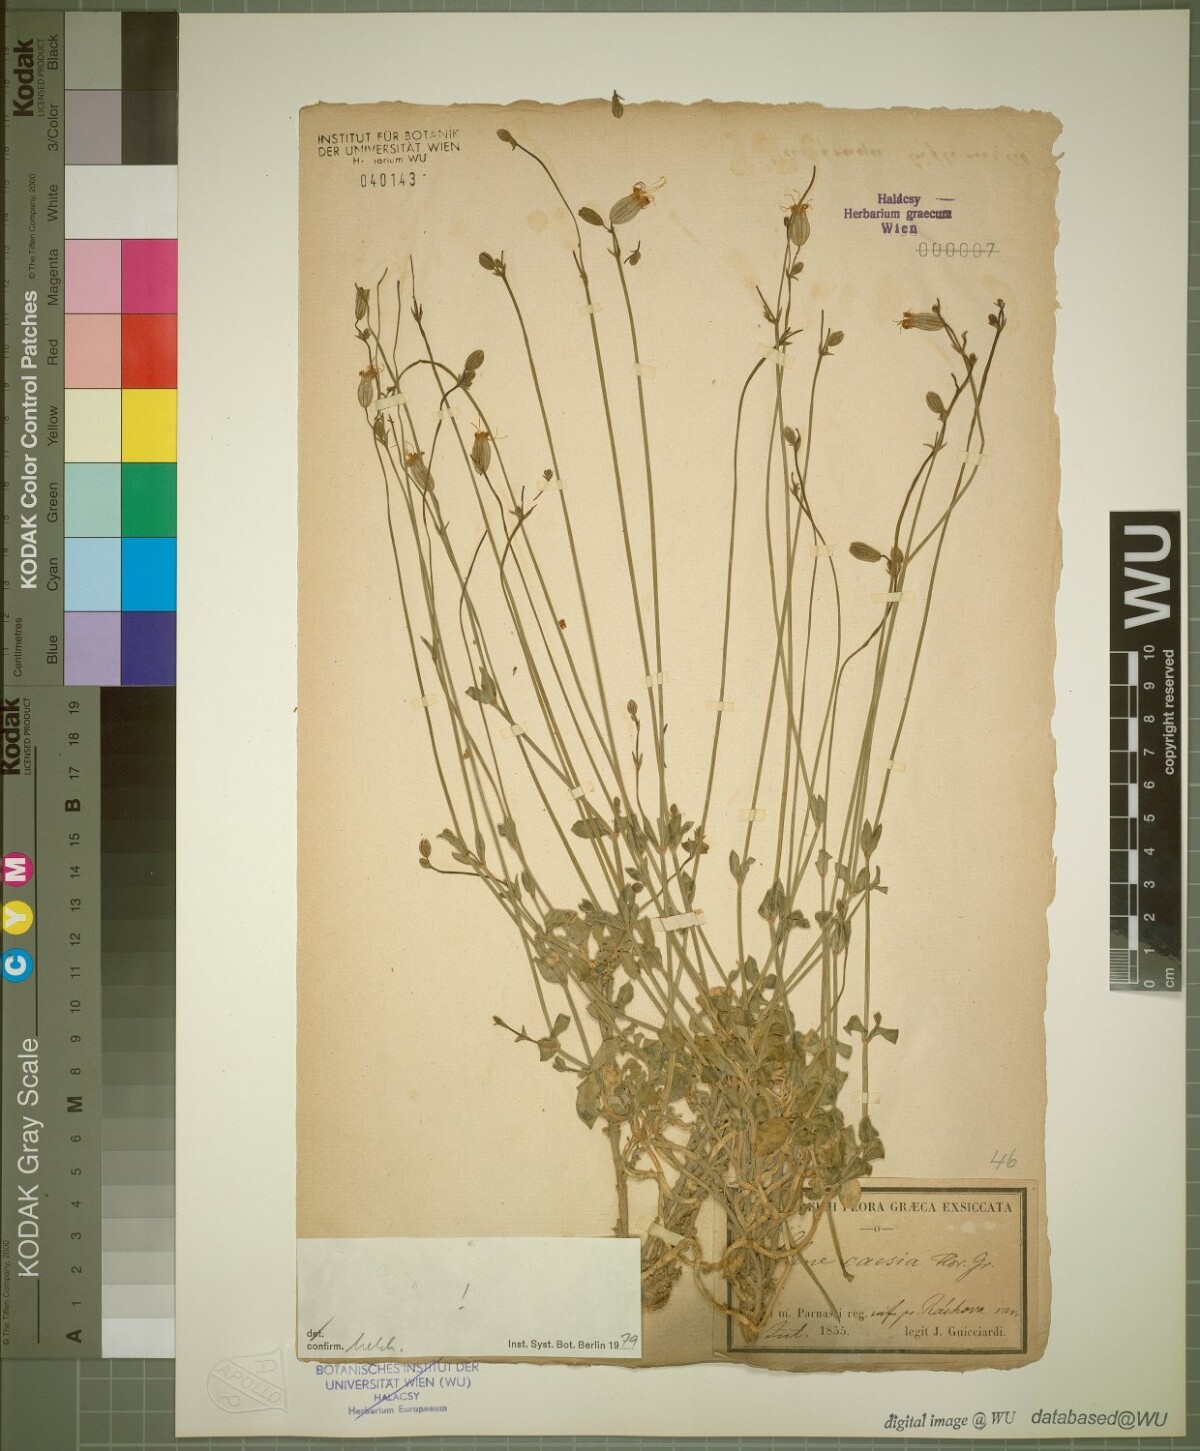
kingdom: Plantae
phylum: Tracheophyta
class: Magnoliopsida
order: Caryophyllales
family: Caryophyllaceae
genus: Silene
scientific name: Silene caesia
